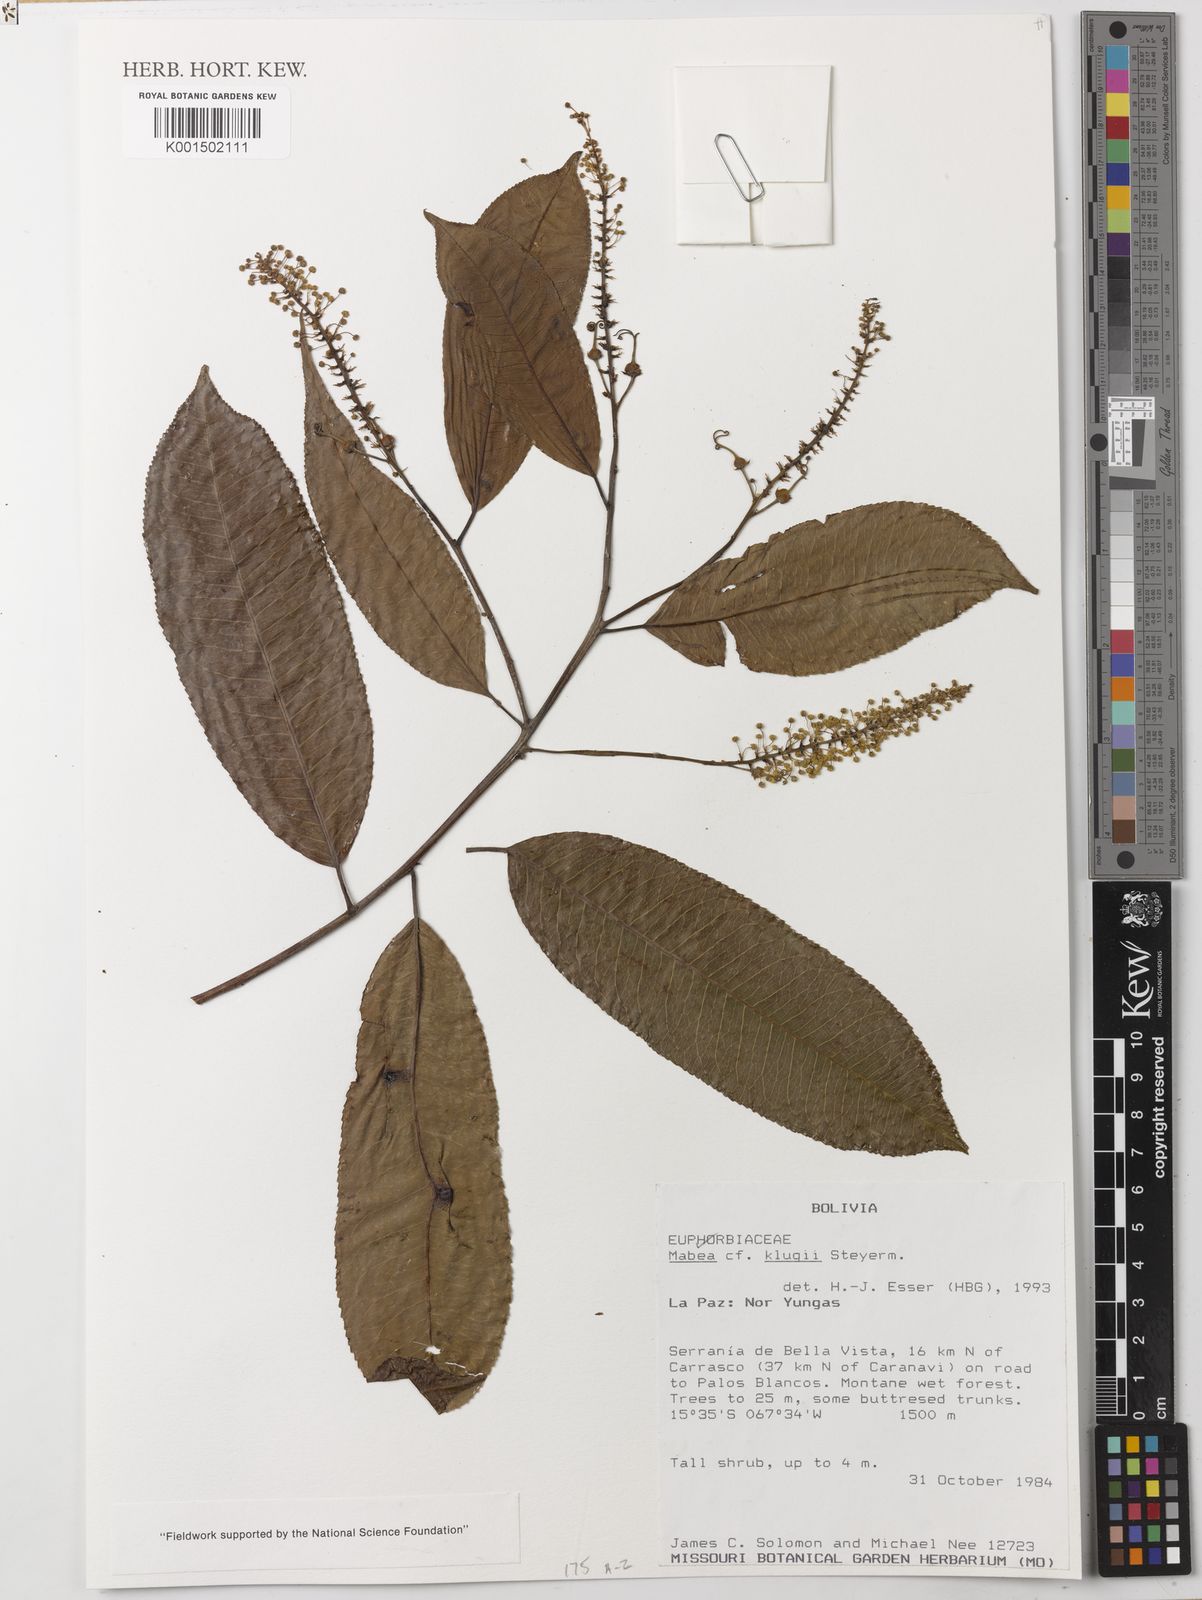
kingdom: Plantae
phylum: Tracheophyta
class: Magnoliopsida
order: Malpighiales
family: Euphorbiaceae
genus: Mabea
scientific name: Mabea klugii
